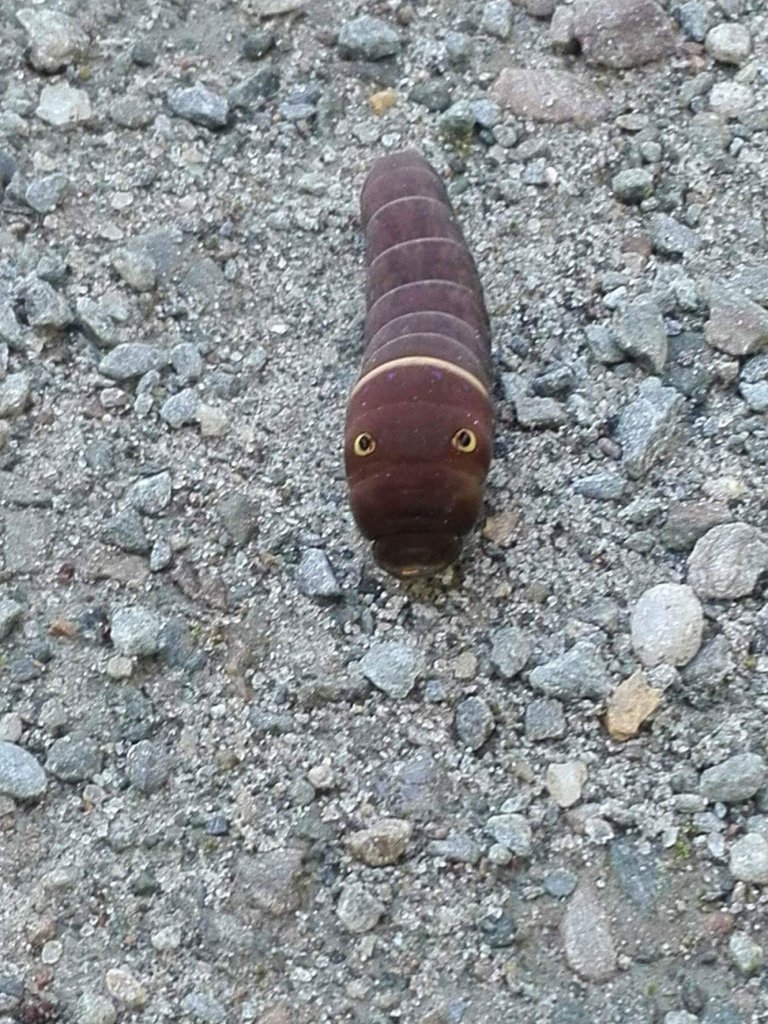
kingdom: Animalia
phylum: Arthropoda
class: Insecta
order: Lepidoptera
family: Papilionidae
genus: Papilio
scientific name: Papilio
